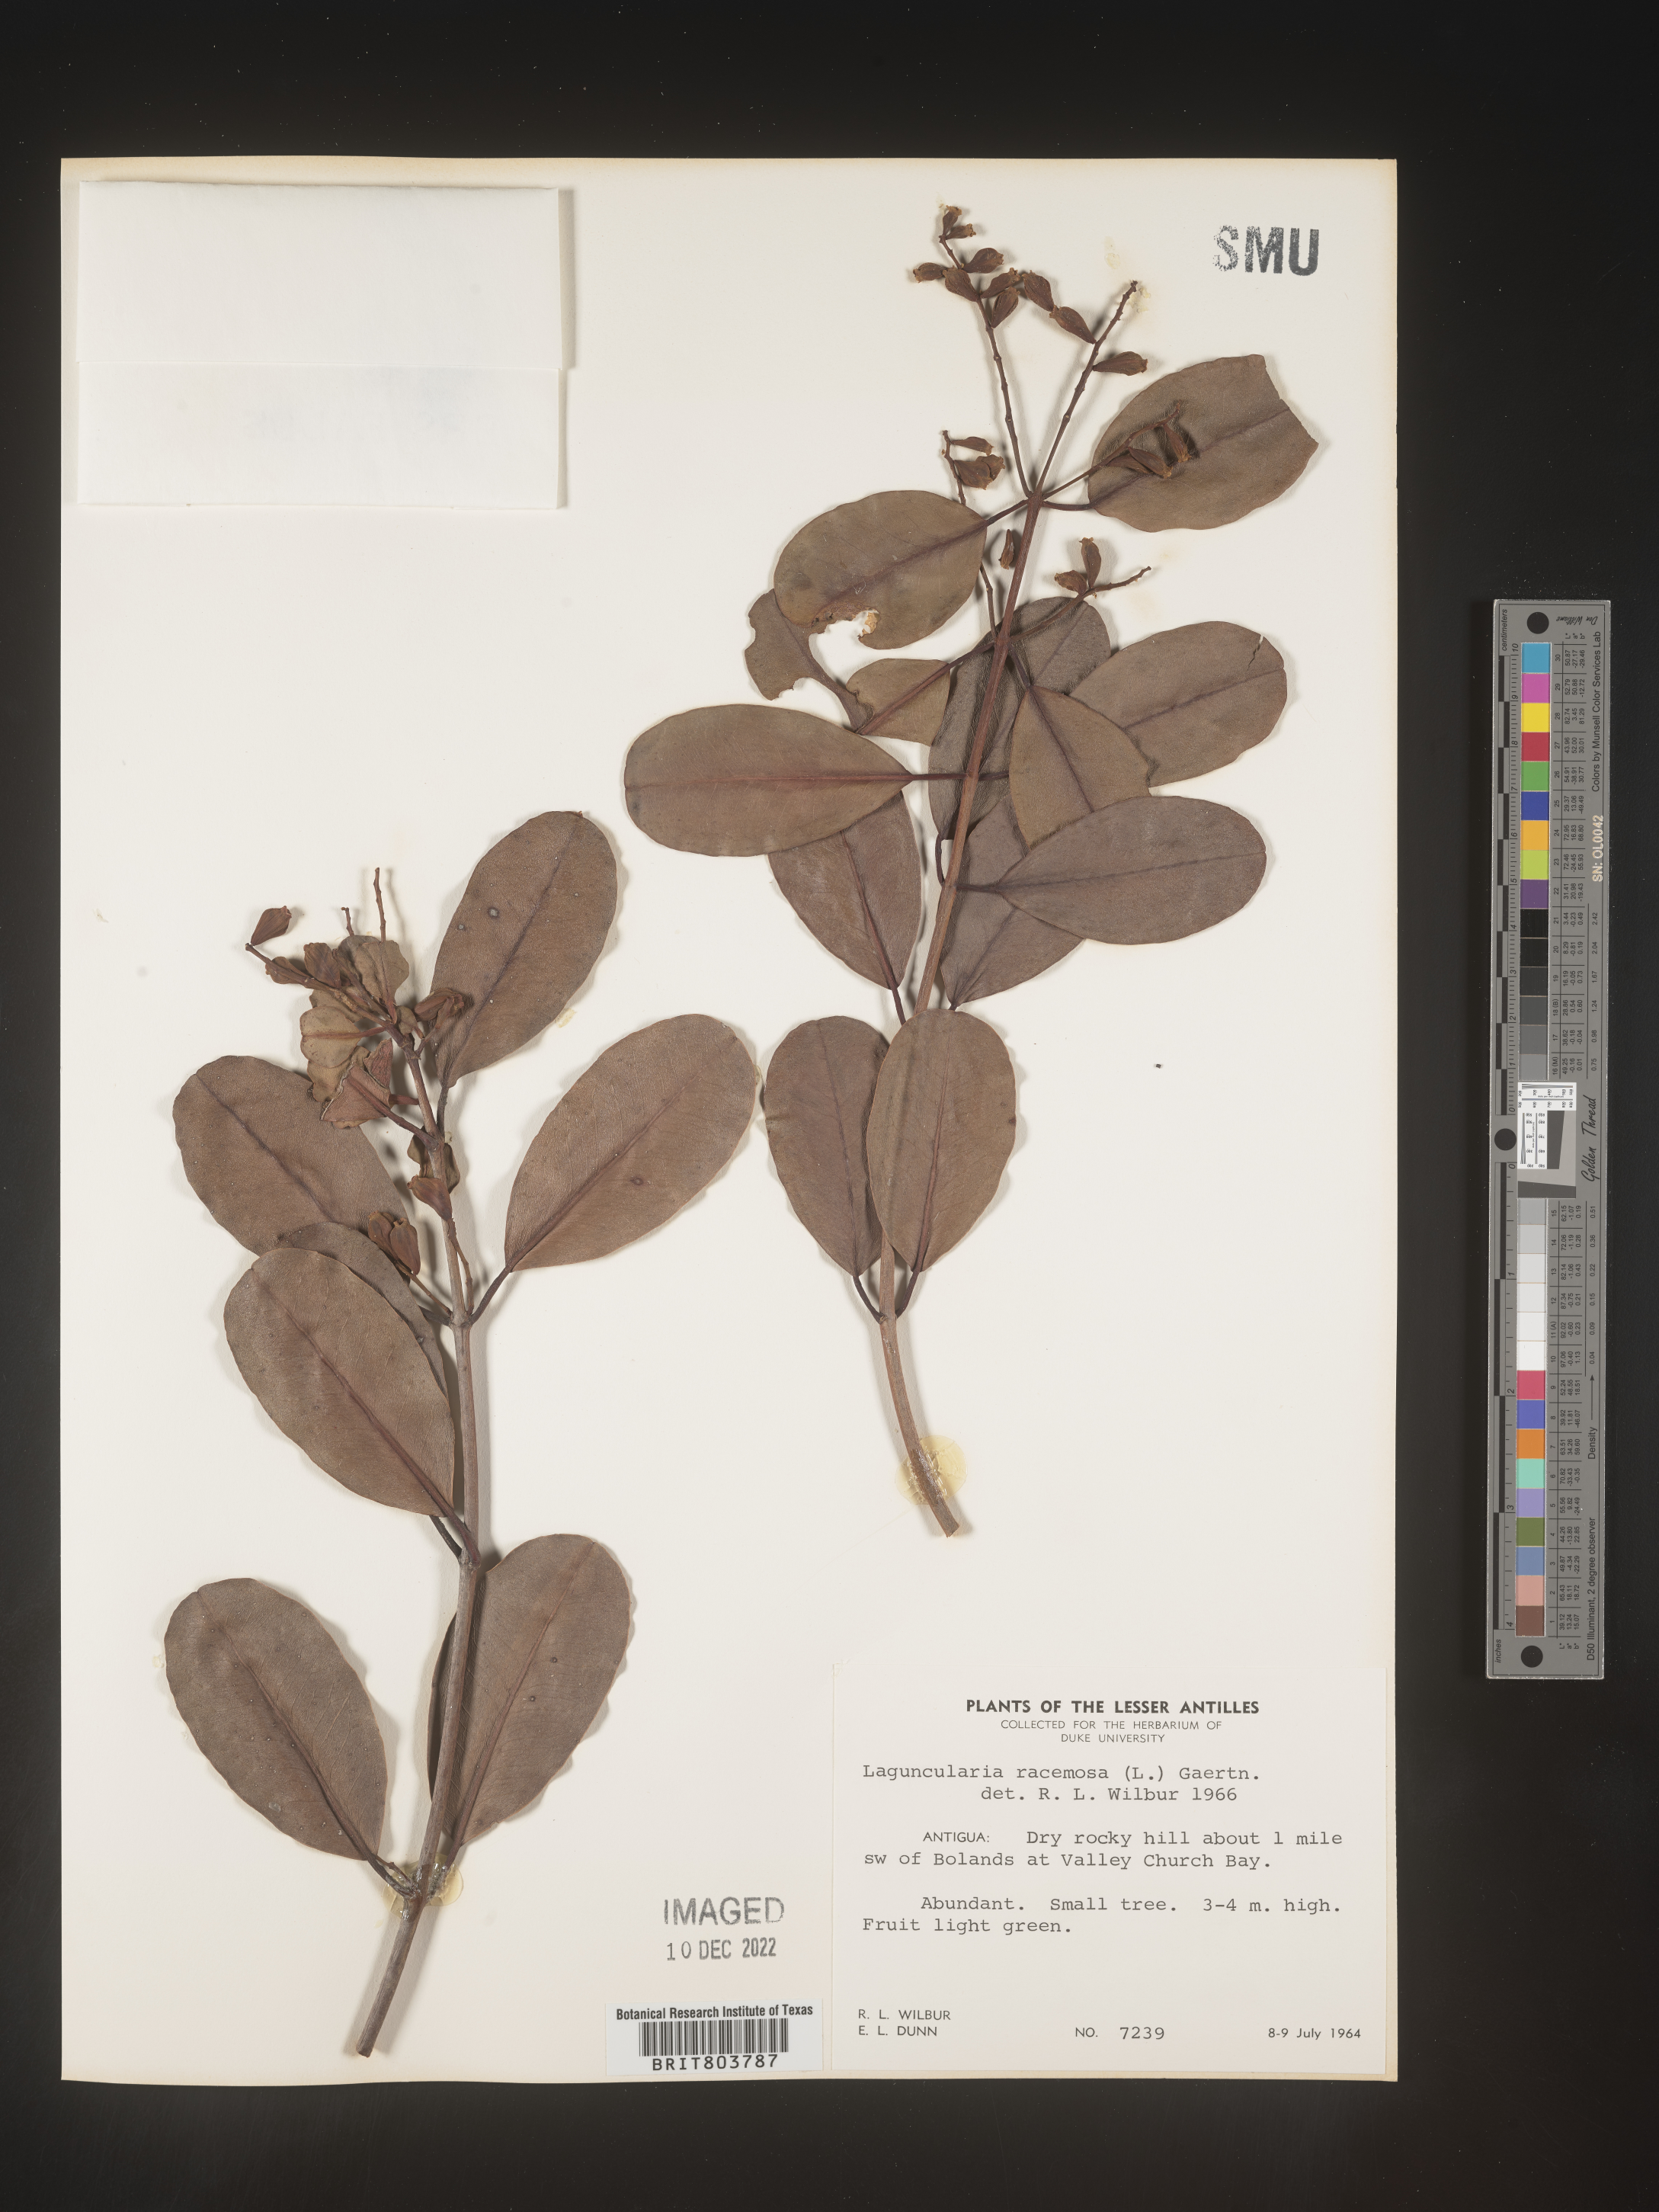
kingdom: Plantae
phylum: Tracheophyta
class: Magnoliopsida
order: Myrtales
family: Combretaceae
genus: Laguncularia
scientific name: Laguncularia
